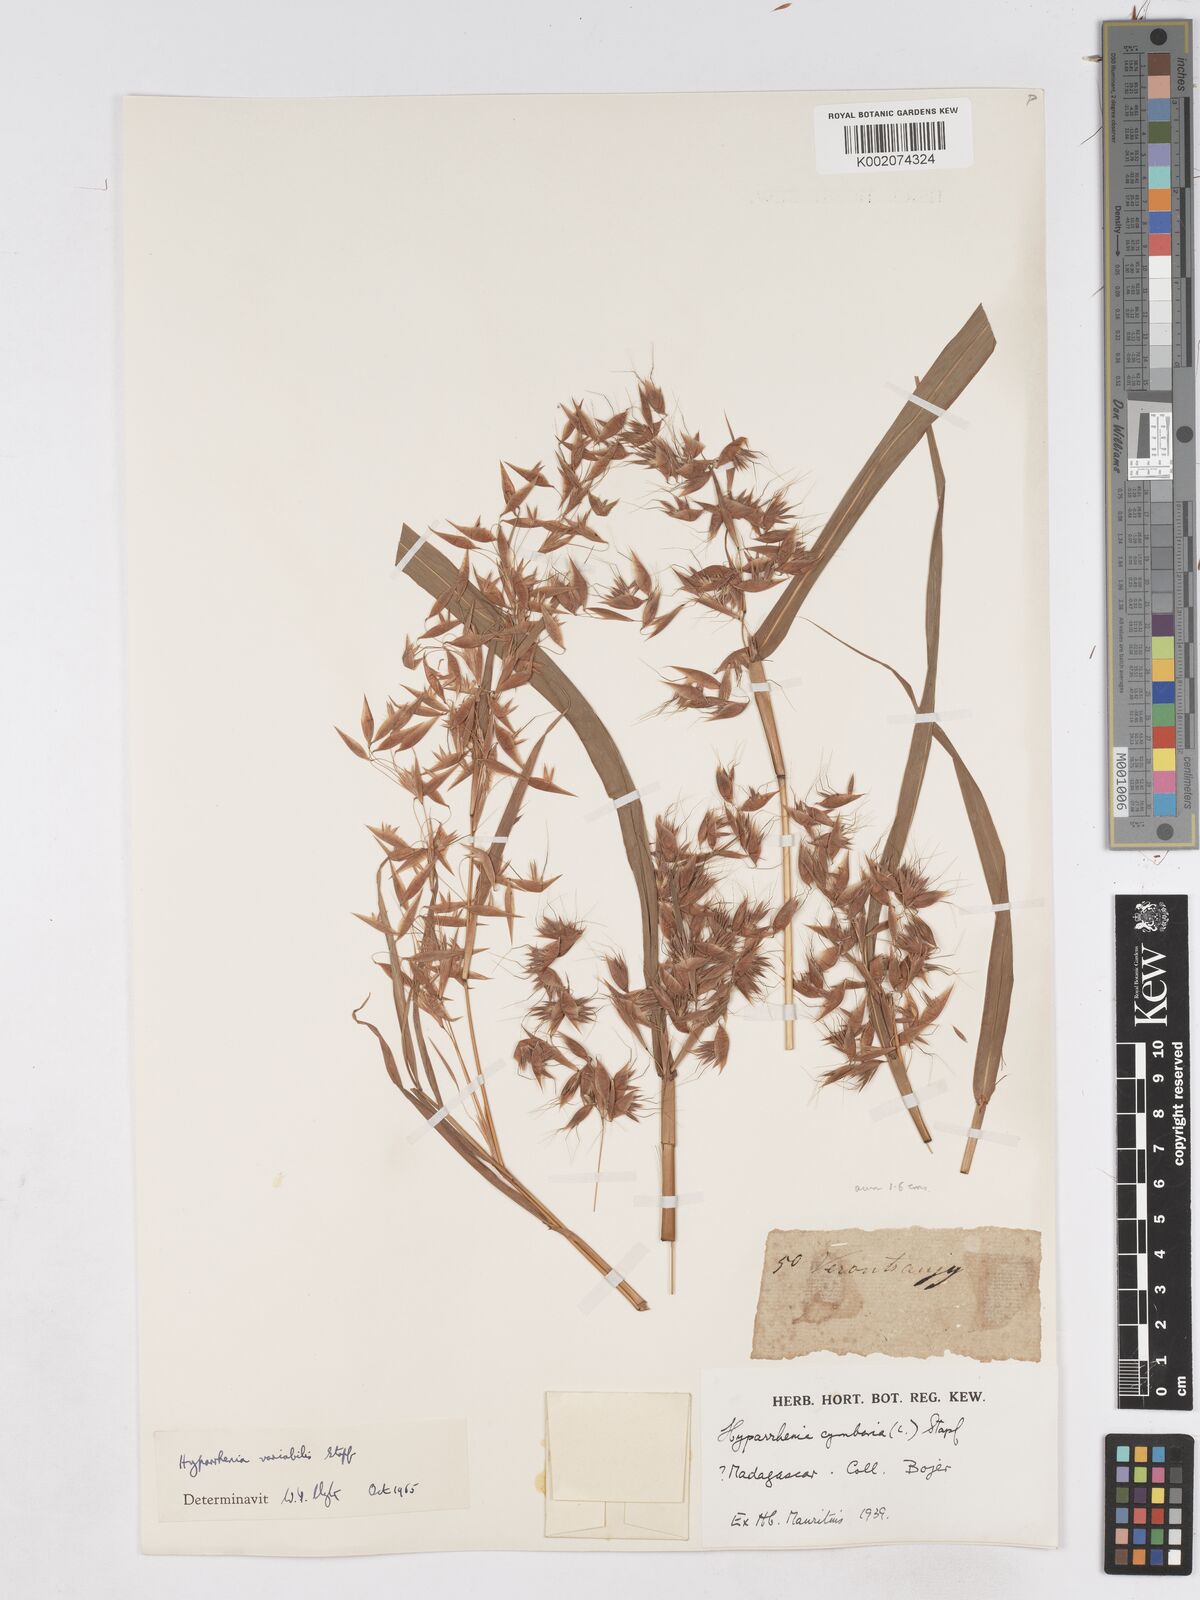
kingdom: Plantae
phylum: Tracheophyta
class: Liliopsida
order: Poales
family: Poaceae
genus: Hyparrhenia
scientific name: Hyparrhenia variabilis
